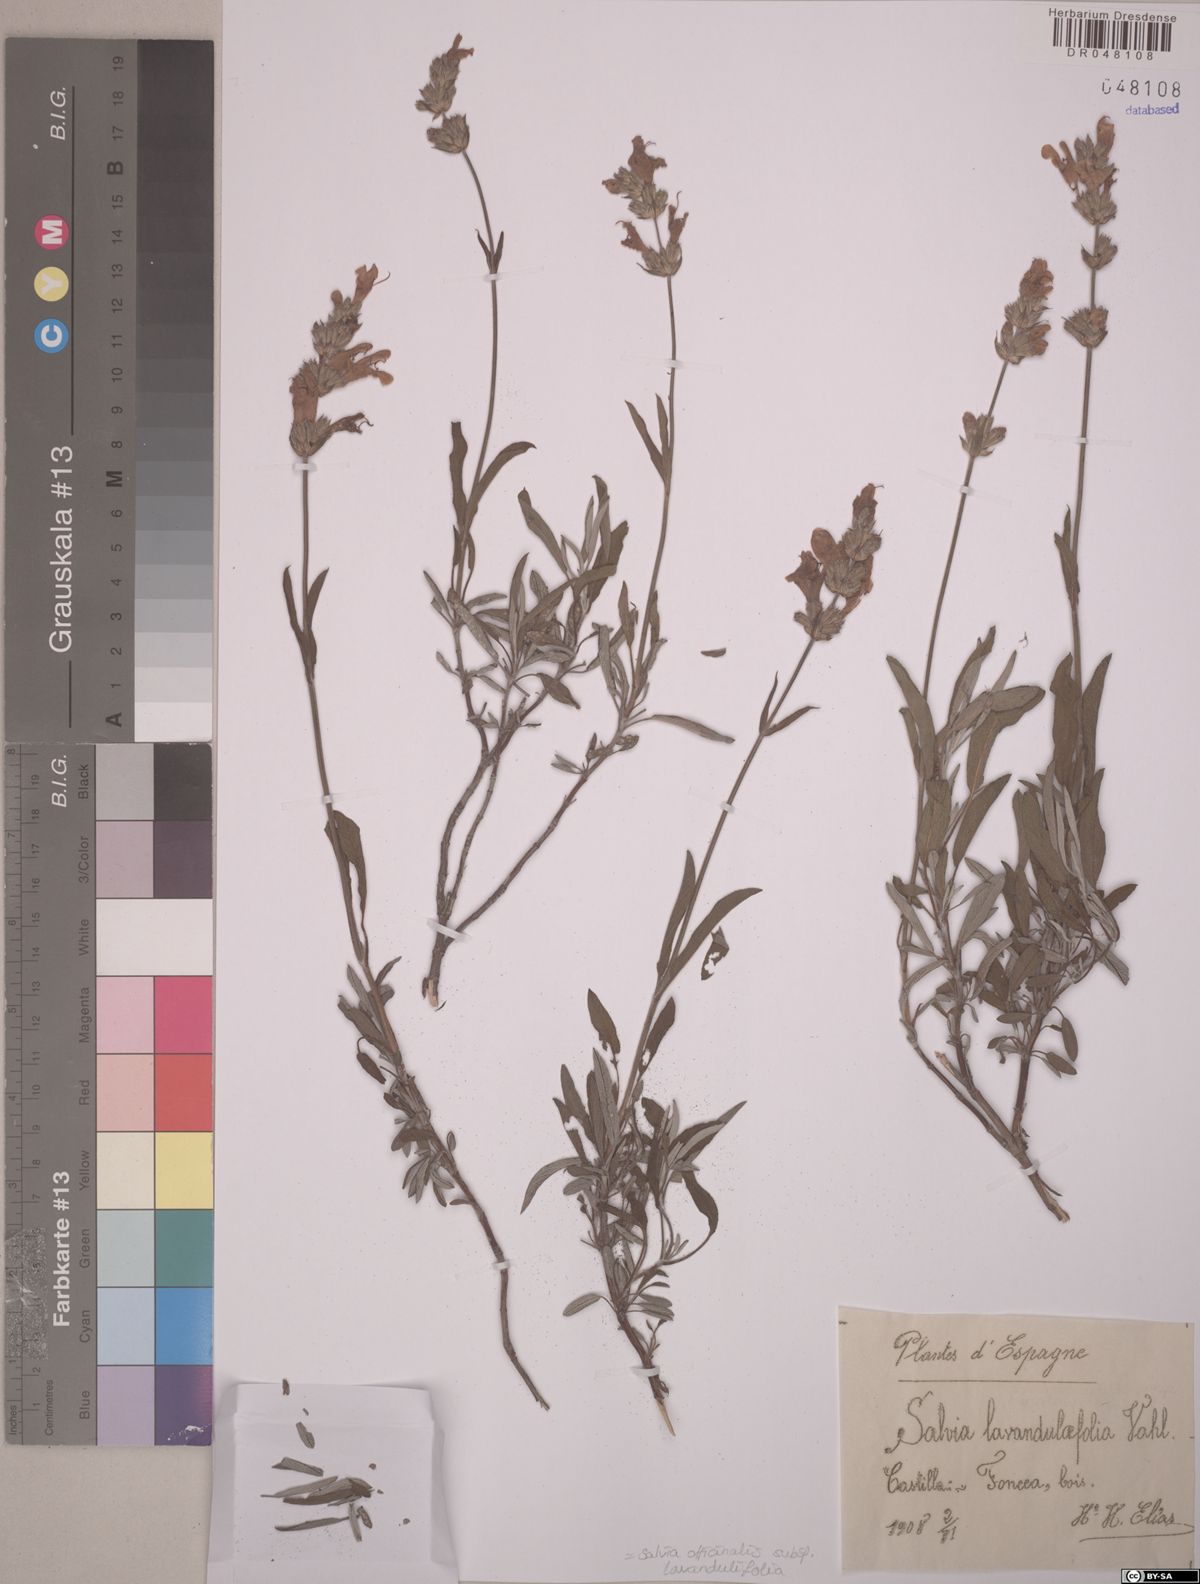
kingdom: Plantae
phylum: Tracheophyta
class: Magnoliopsida
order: Lamiales
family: Lamiaceae
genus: Salvia
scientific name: Salvia officinalis
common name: Sage
